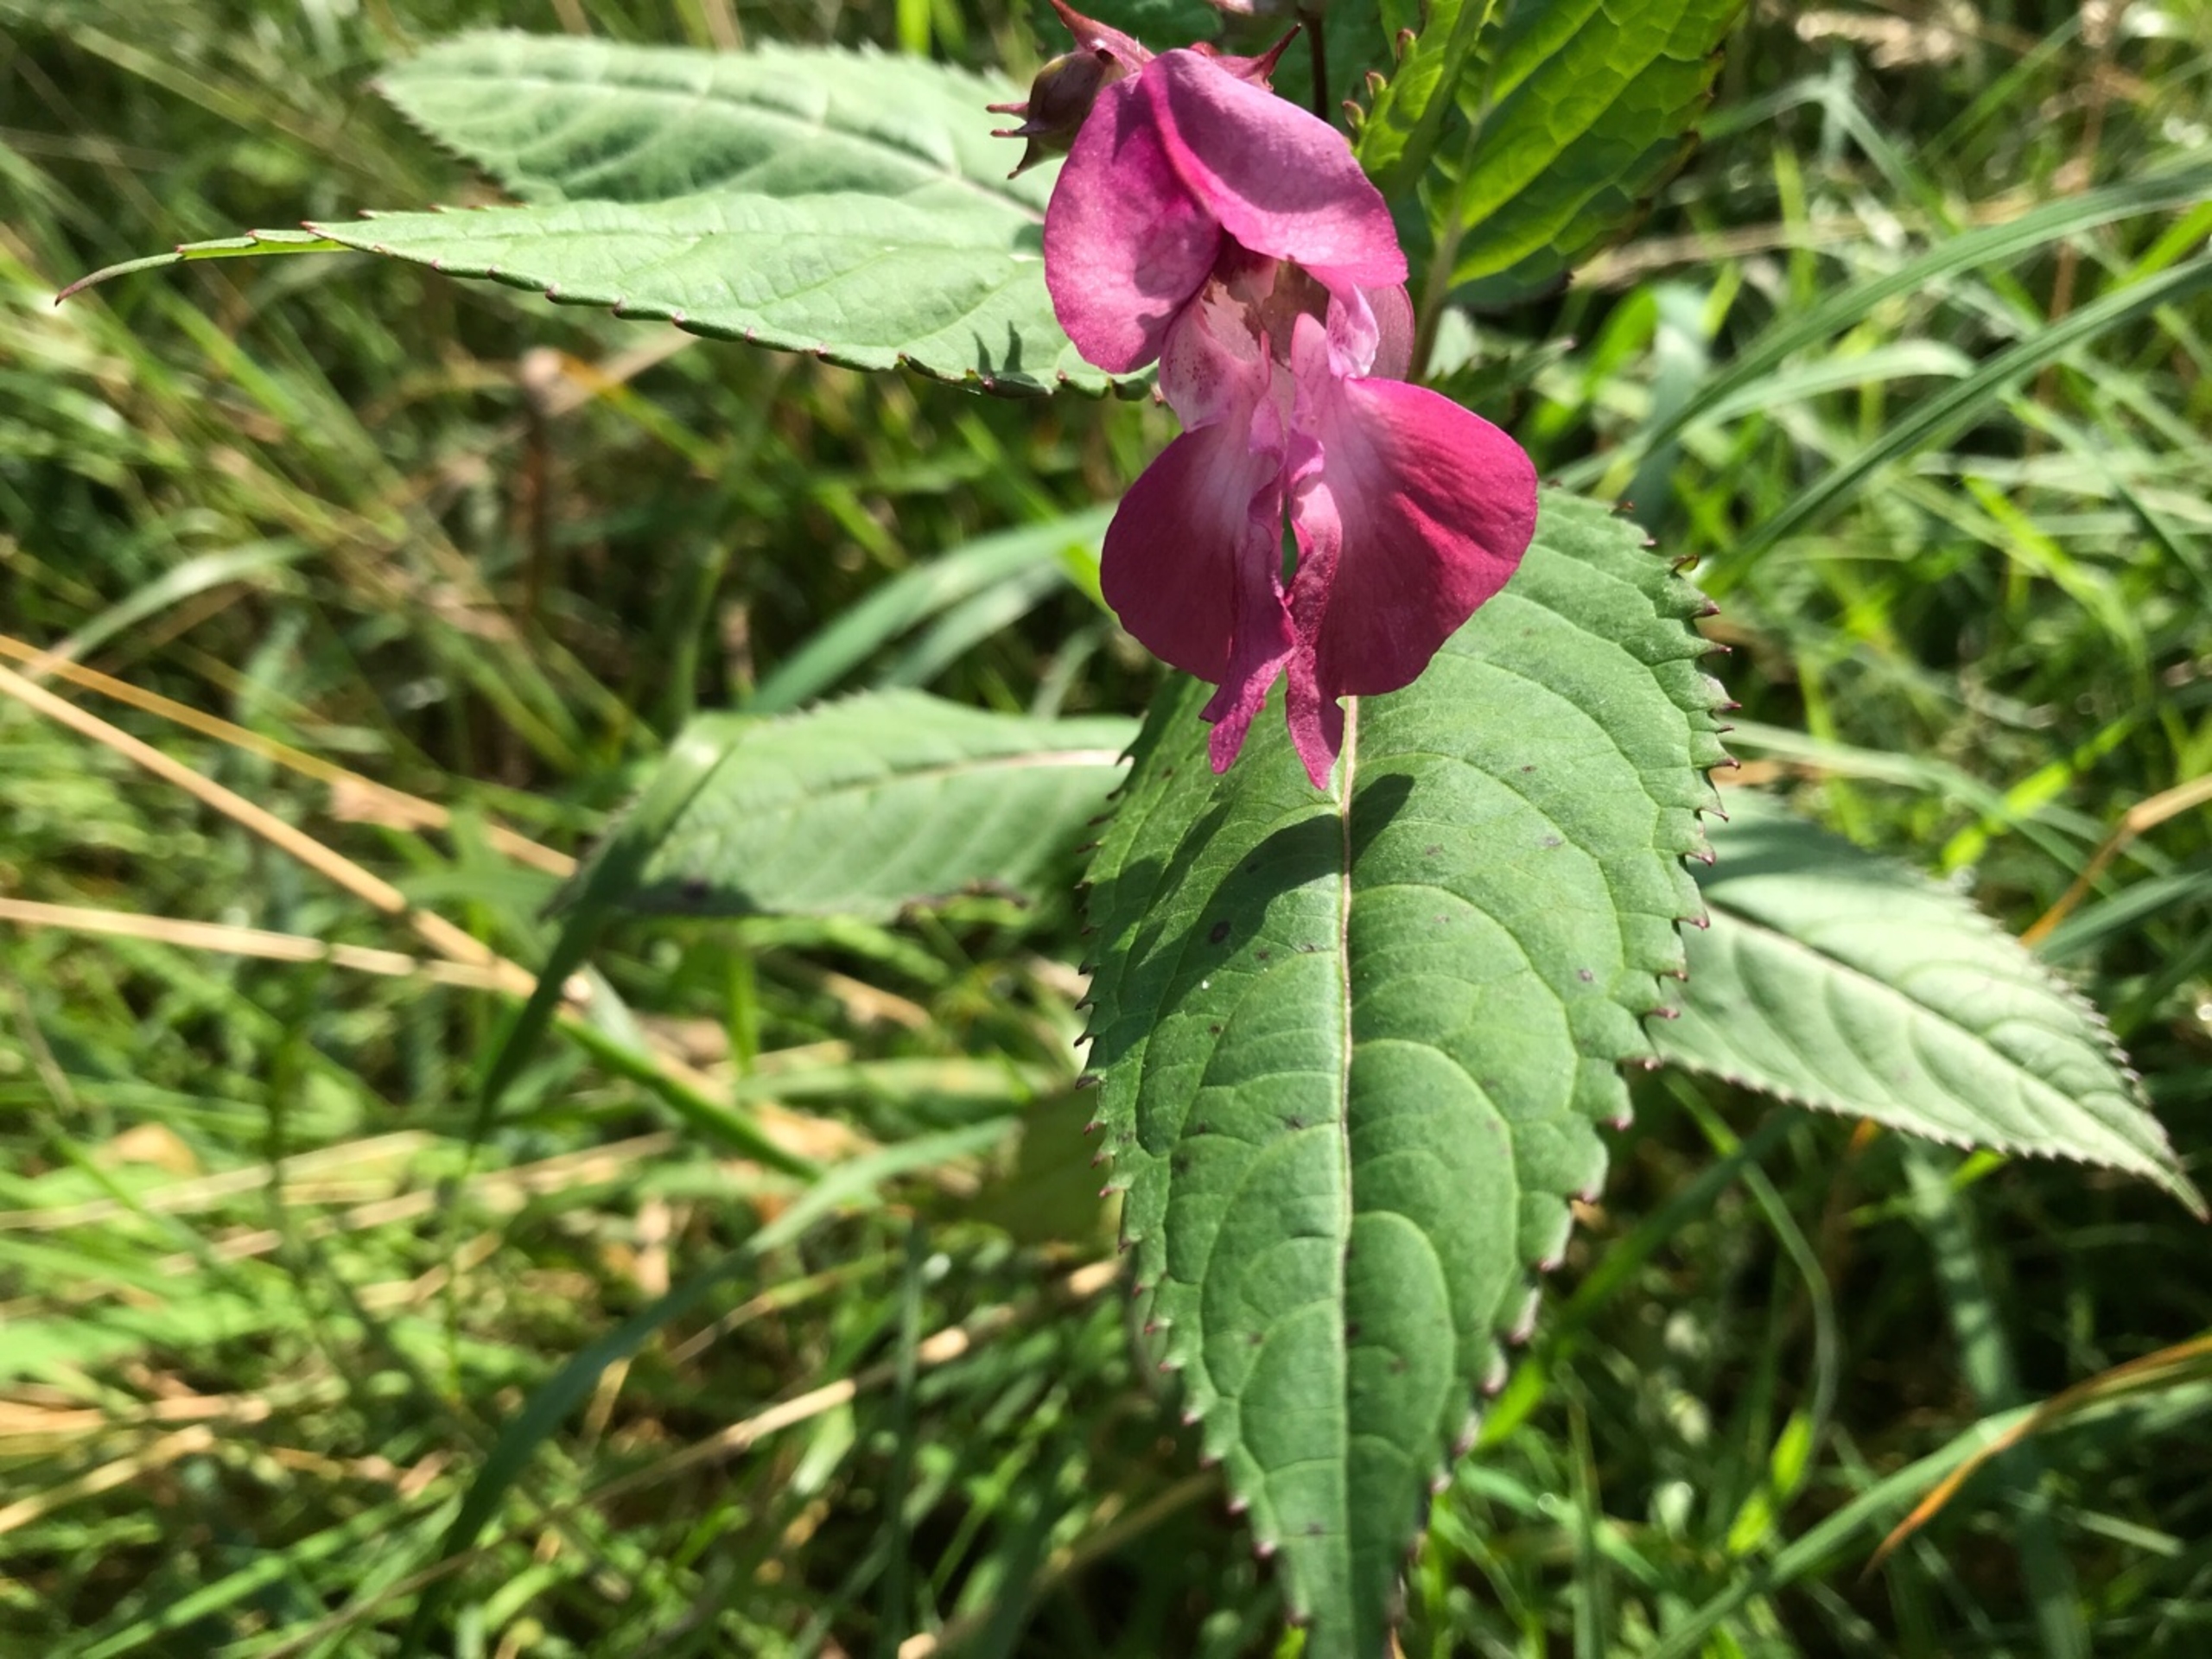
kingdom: Plantae
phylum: Tracheophyta
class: Magnoliopsida
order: Ericales
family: Balsaminaceae
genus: Impatiens
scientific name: Impatiens glandulifera
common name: Kæmpe-balsamin
